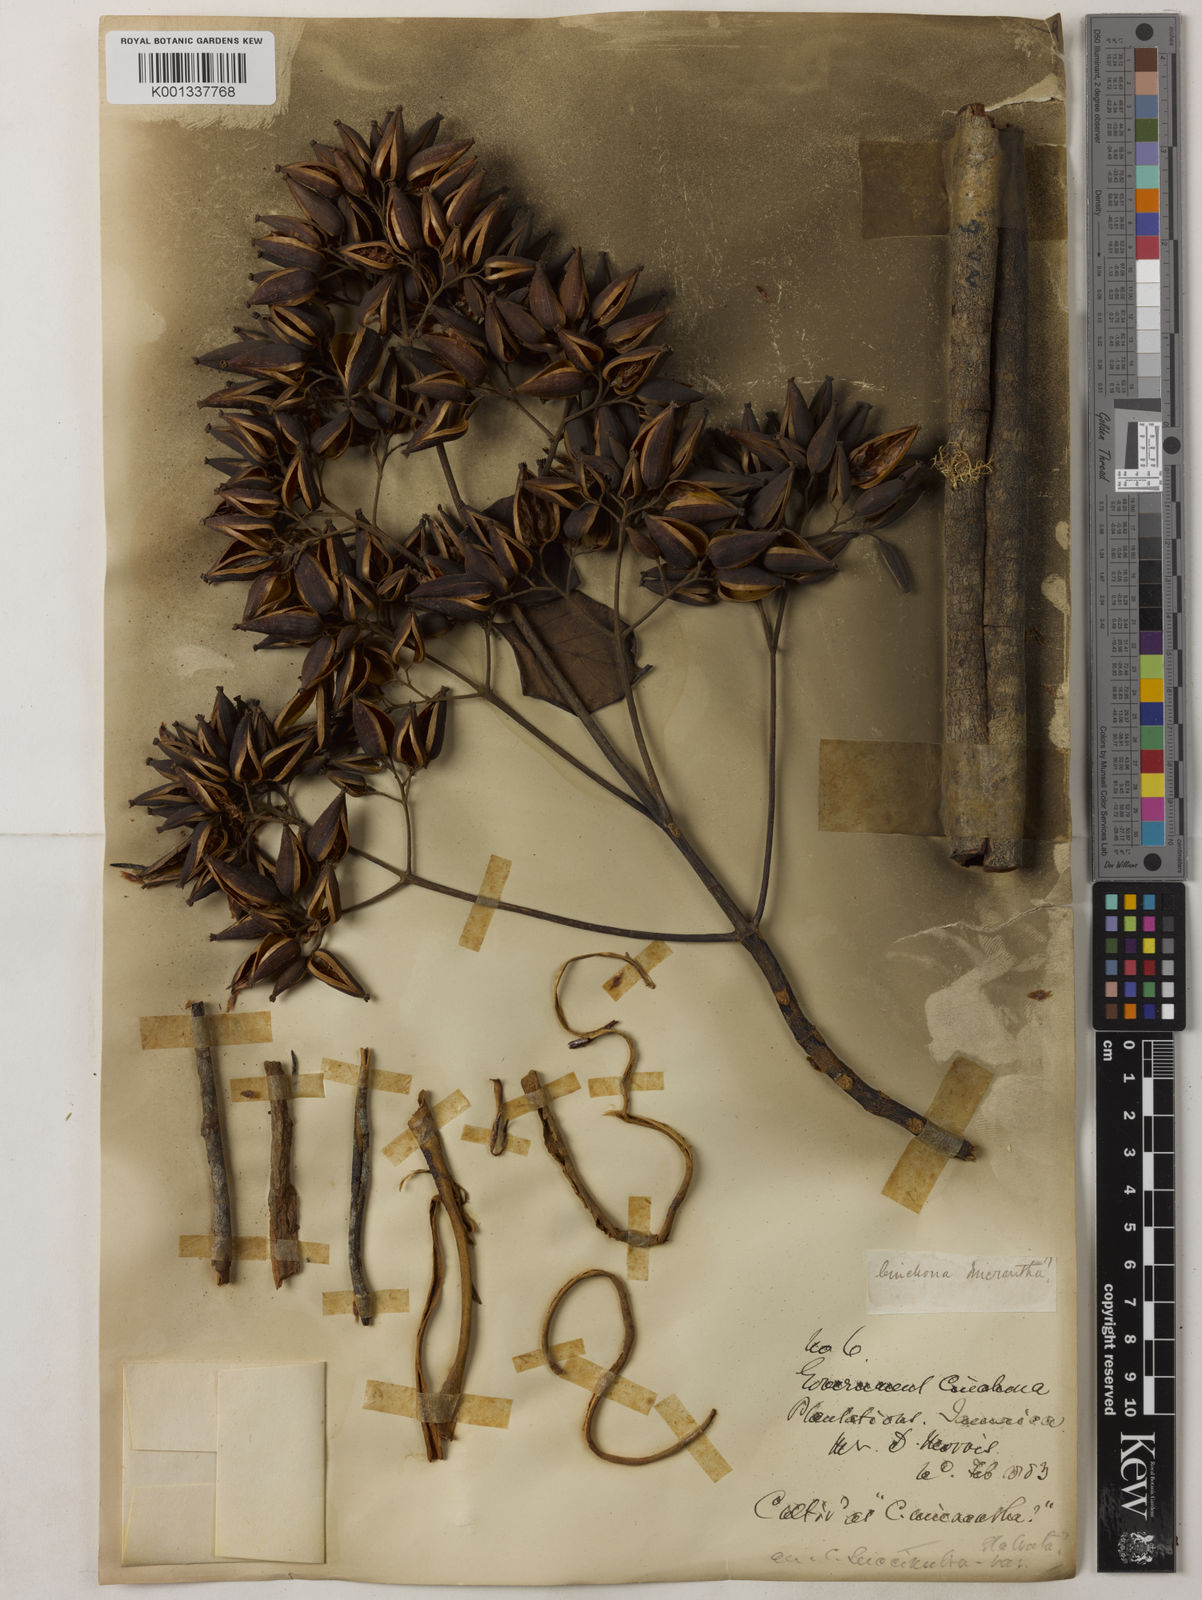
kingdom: Plantae
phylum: Tracheophyta
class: Magnoliopsida
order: Gentianales
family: Rubiaceae
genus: Cinchona
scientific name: Cinchona micrantha
